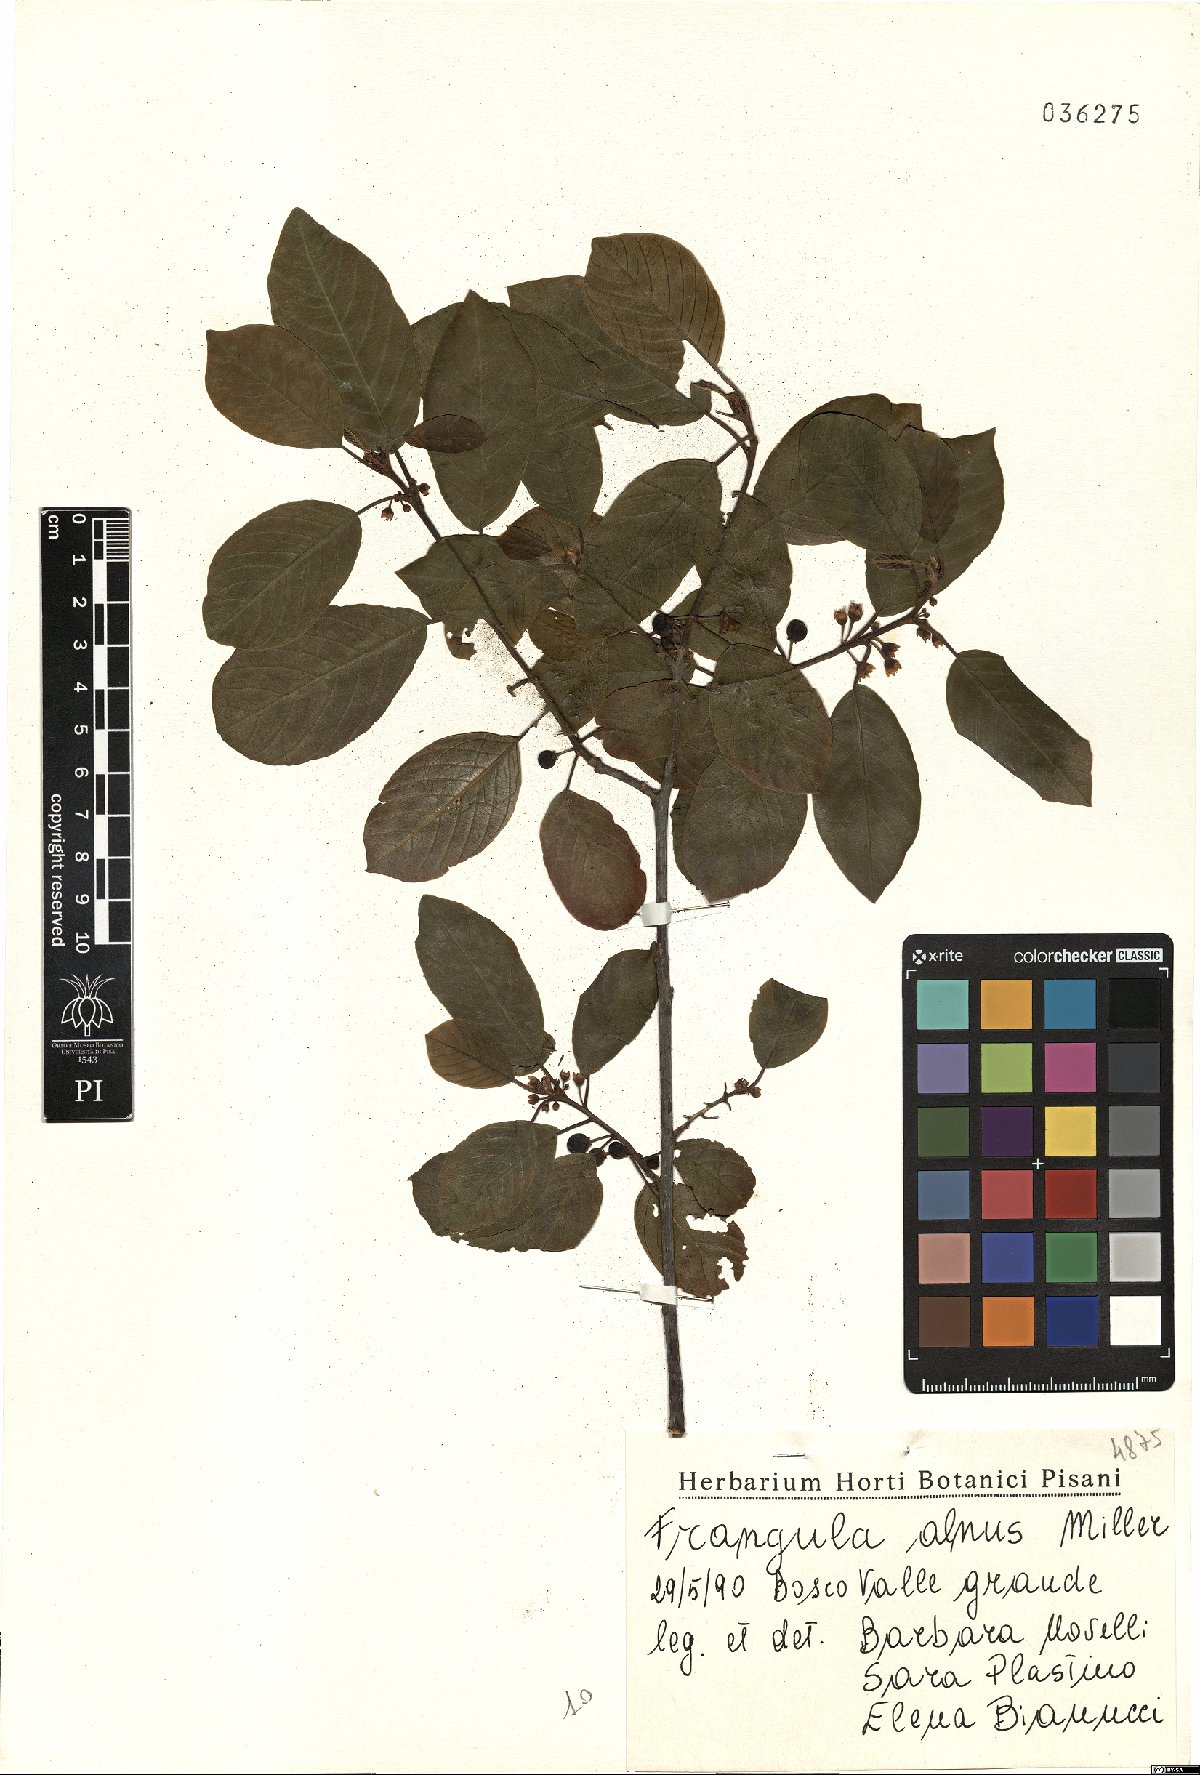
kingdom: Plantae
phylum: Tracheophyta
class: Magnoliopsida
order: Rosales
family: Rhamnaceae
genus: Frangula
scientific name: Frangula alnus
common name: Alder buckthorn
